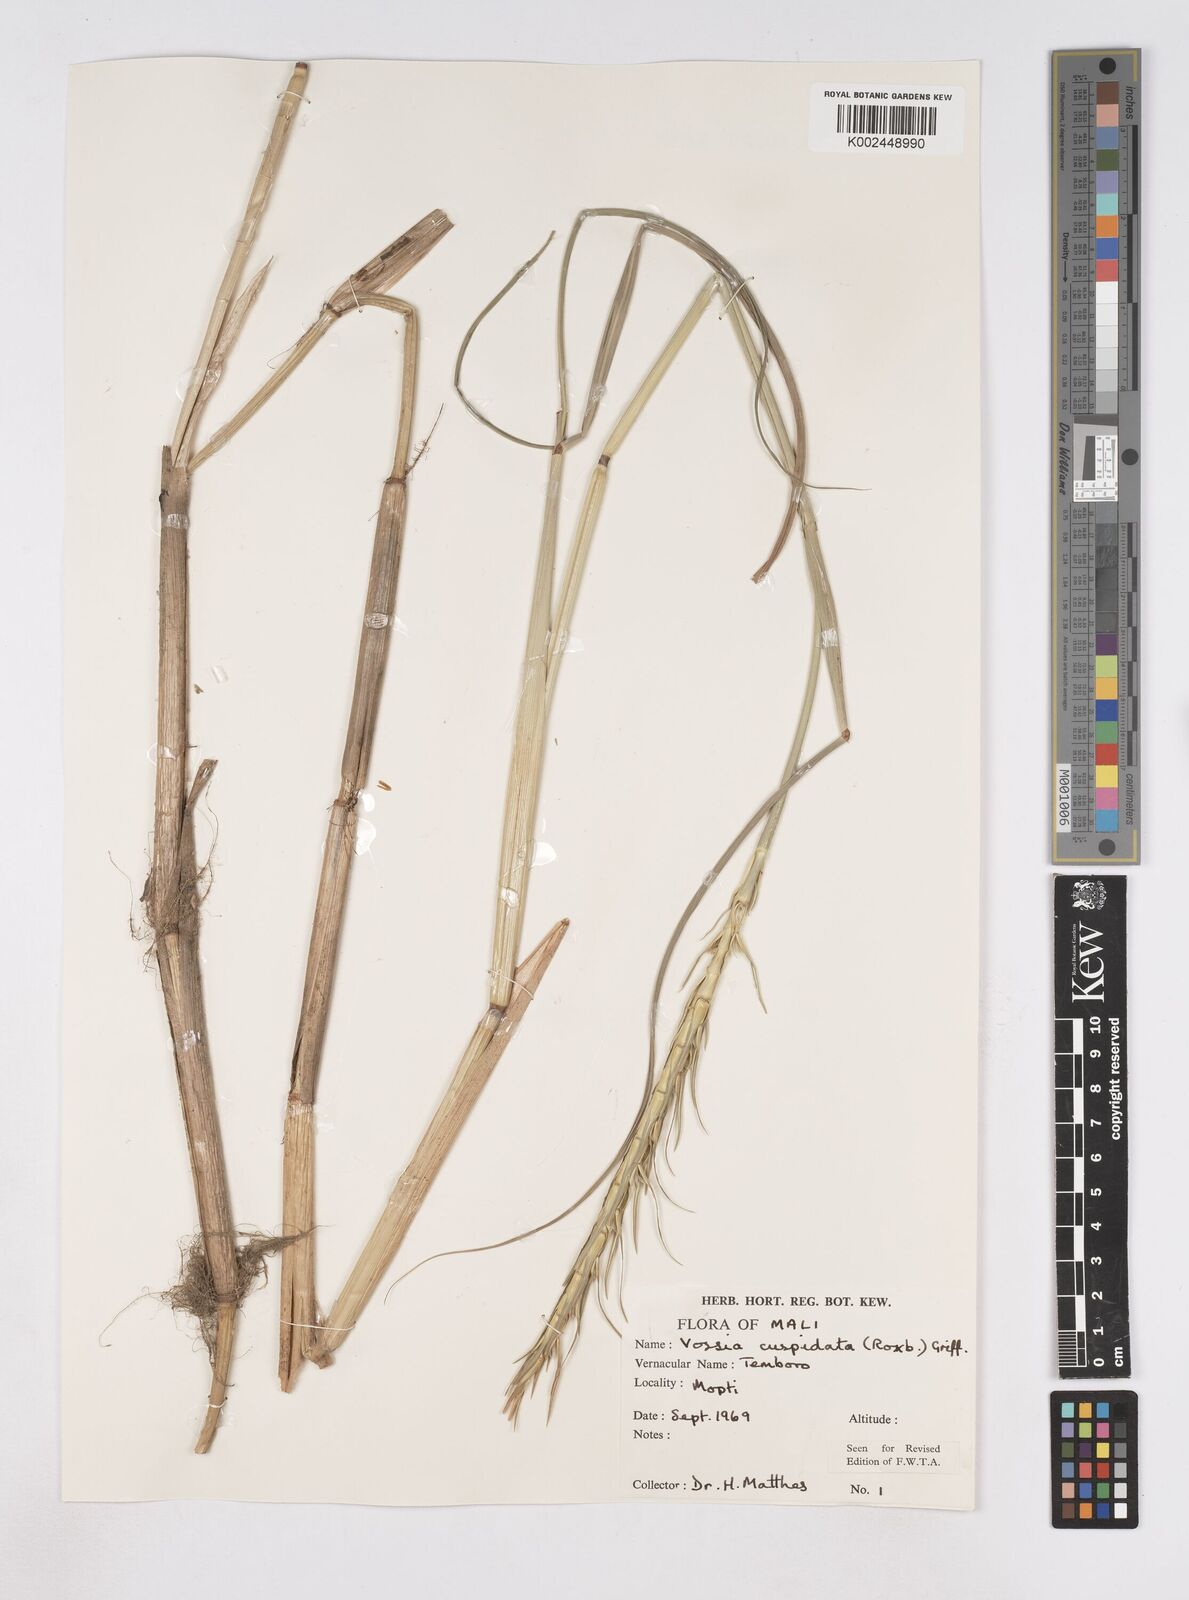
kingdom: Plantae
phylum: Tracheophyta
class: Liliopsida
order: Poales
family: Poaceae
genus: Vossia
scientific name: Vossia cuspidata
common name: Hippo grass
